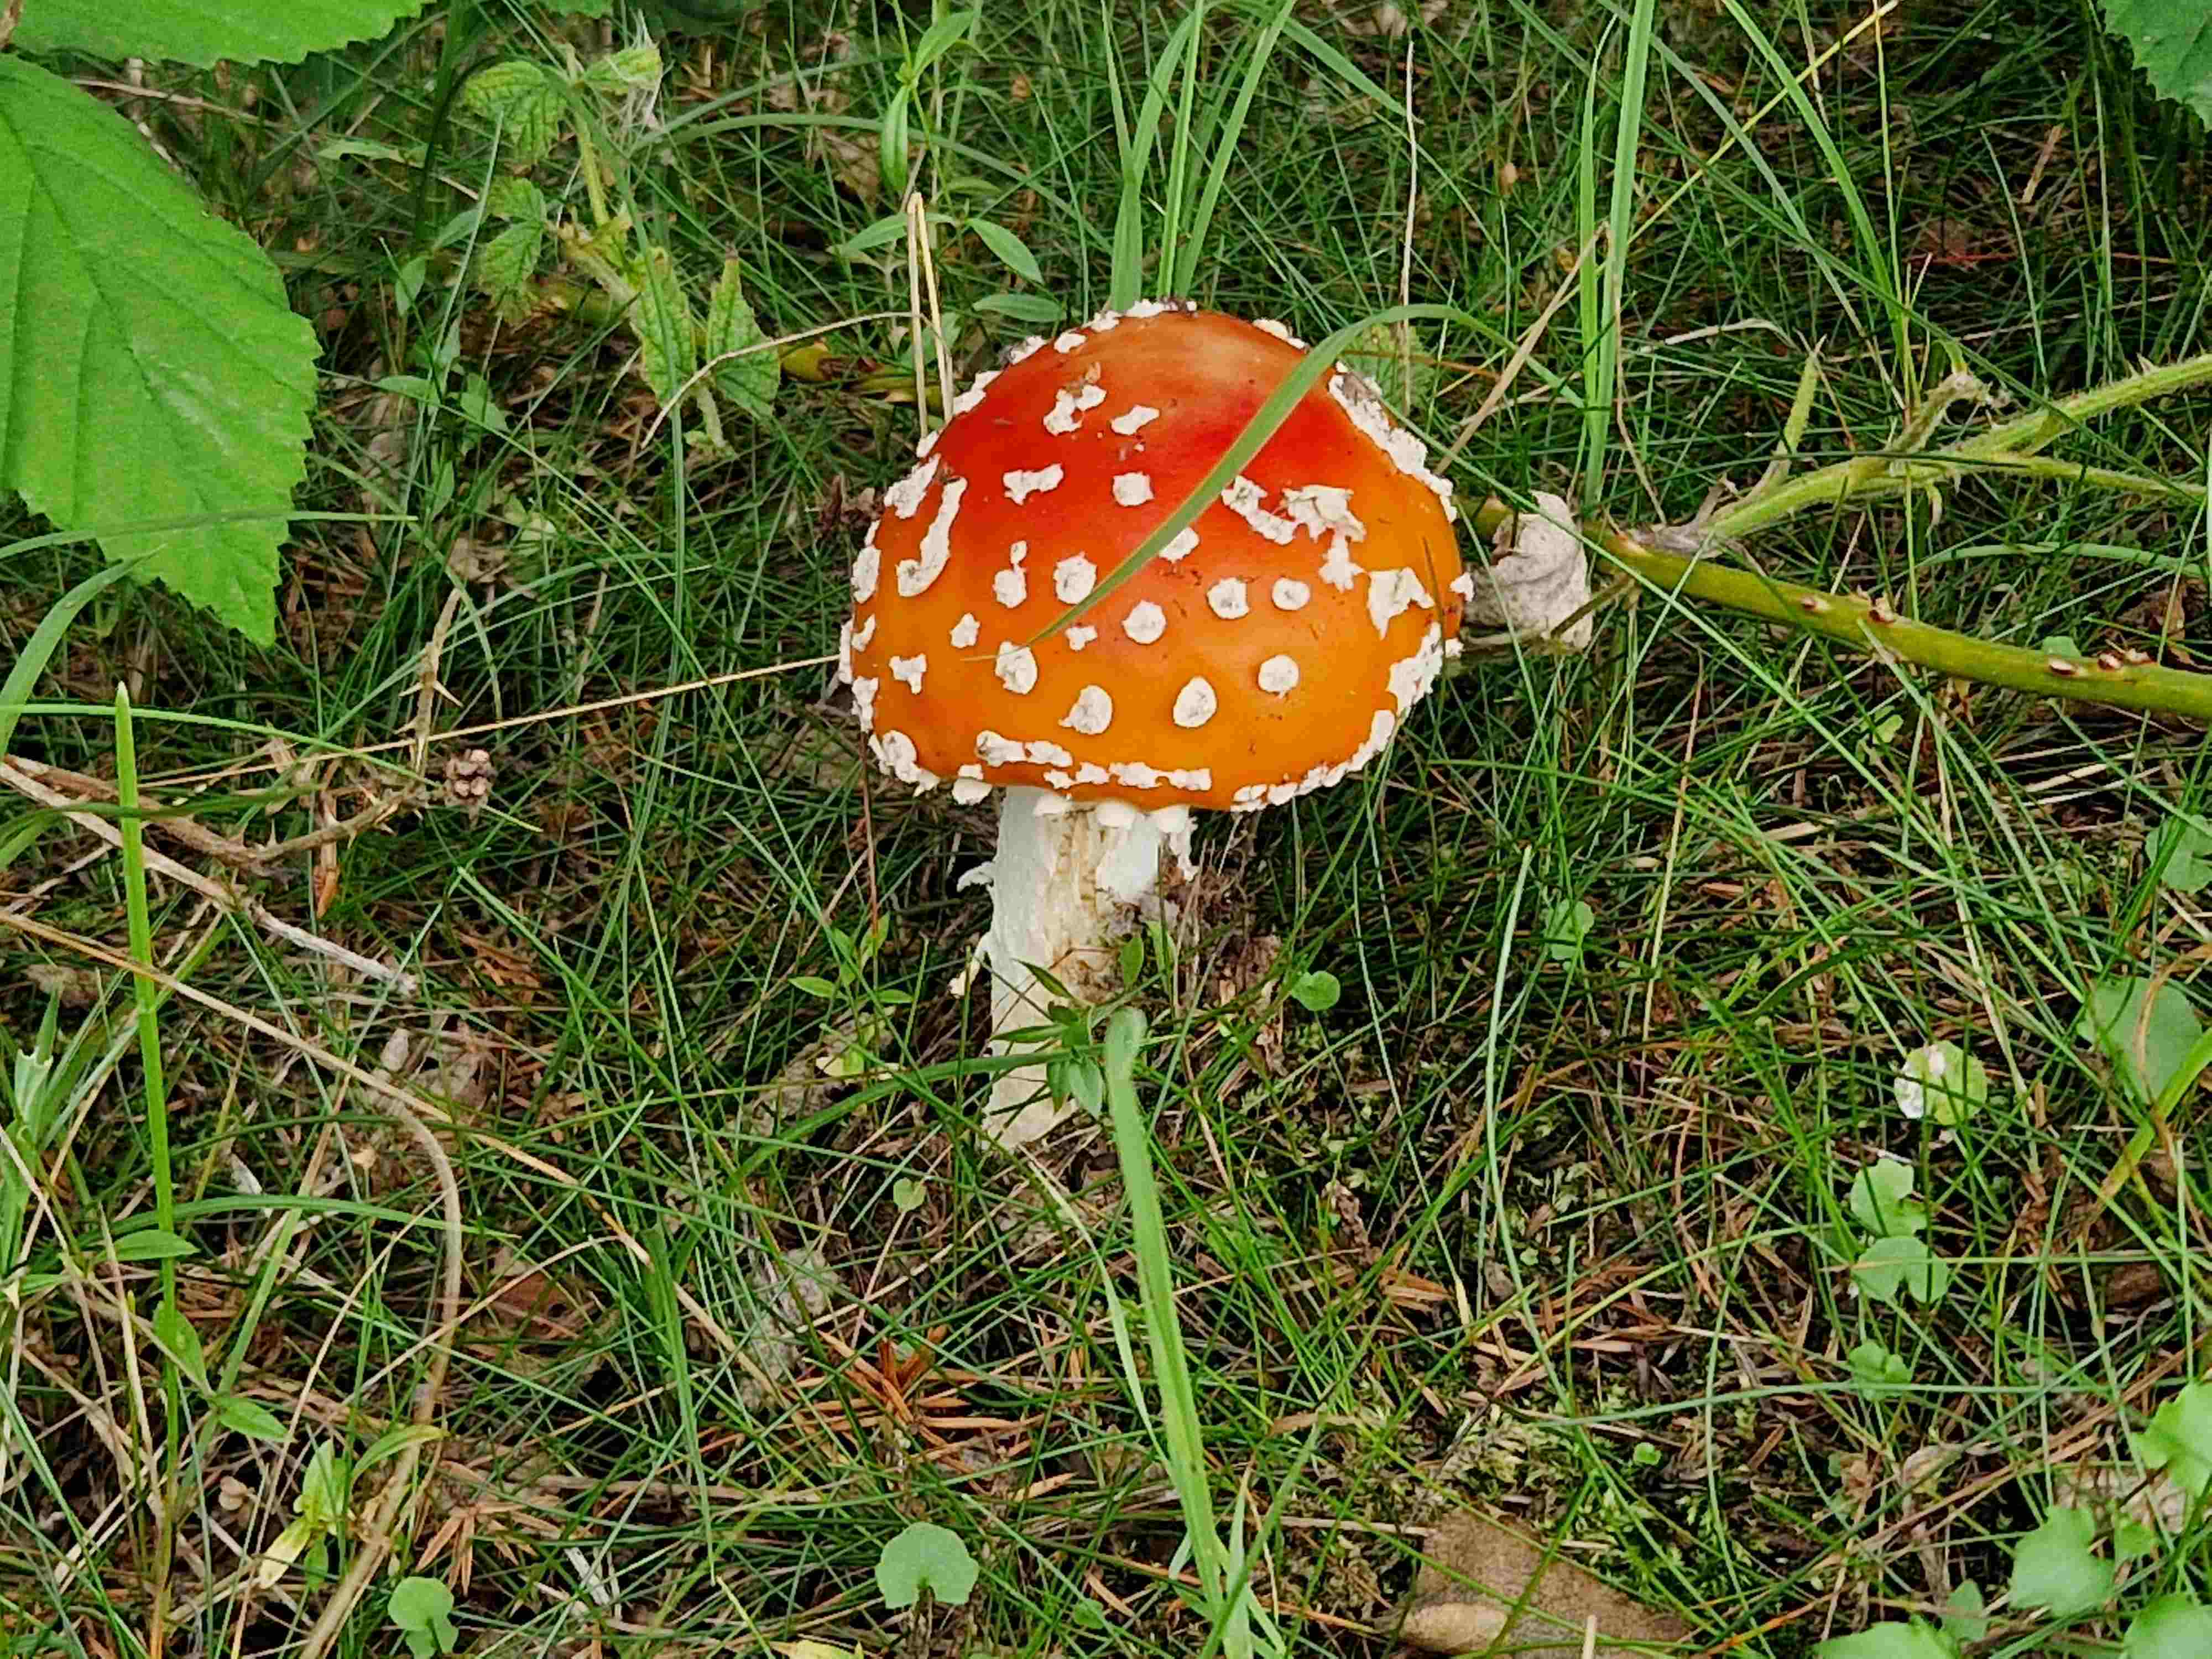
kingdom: Fungi
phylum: Basidiomycota
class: Agaricomycetes
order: Agaricales
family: Amanitaceae
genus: Amanita
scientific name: Amanita muscaria
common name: rød fluesvamp
